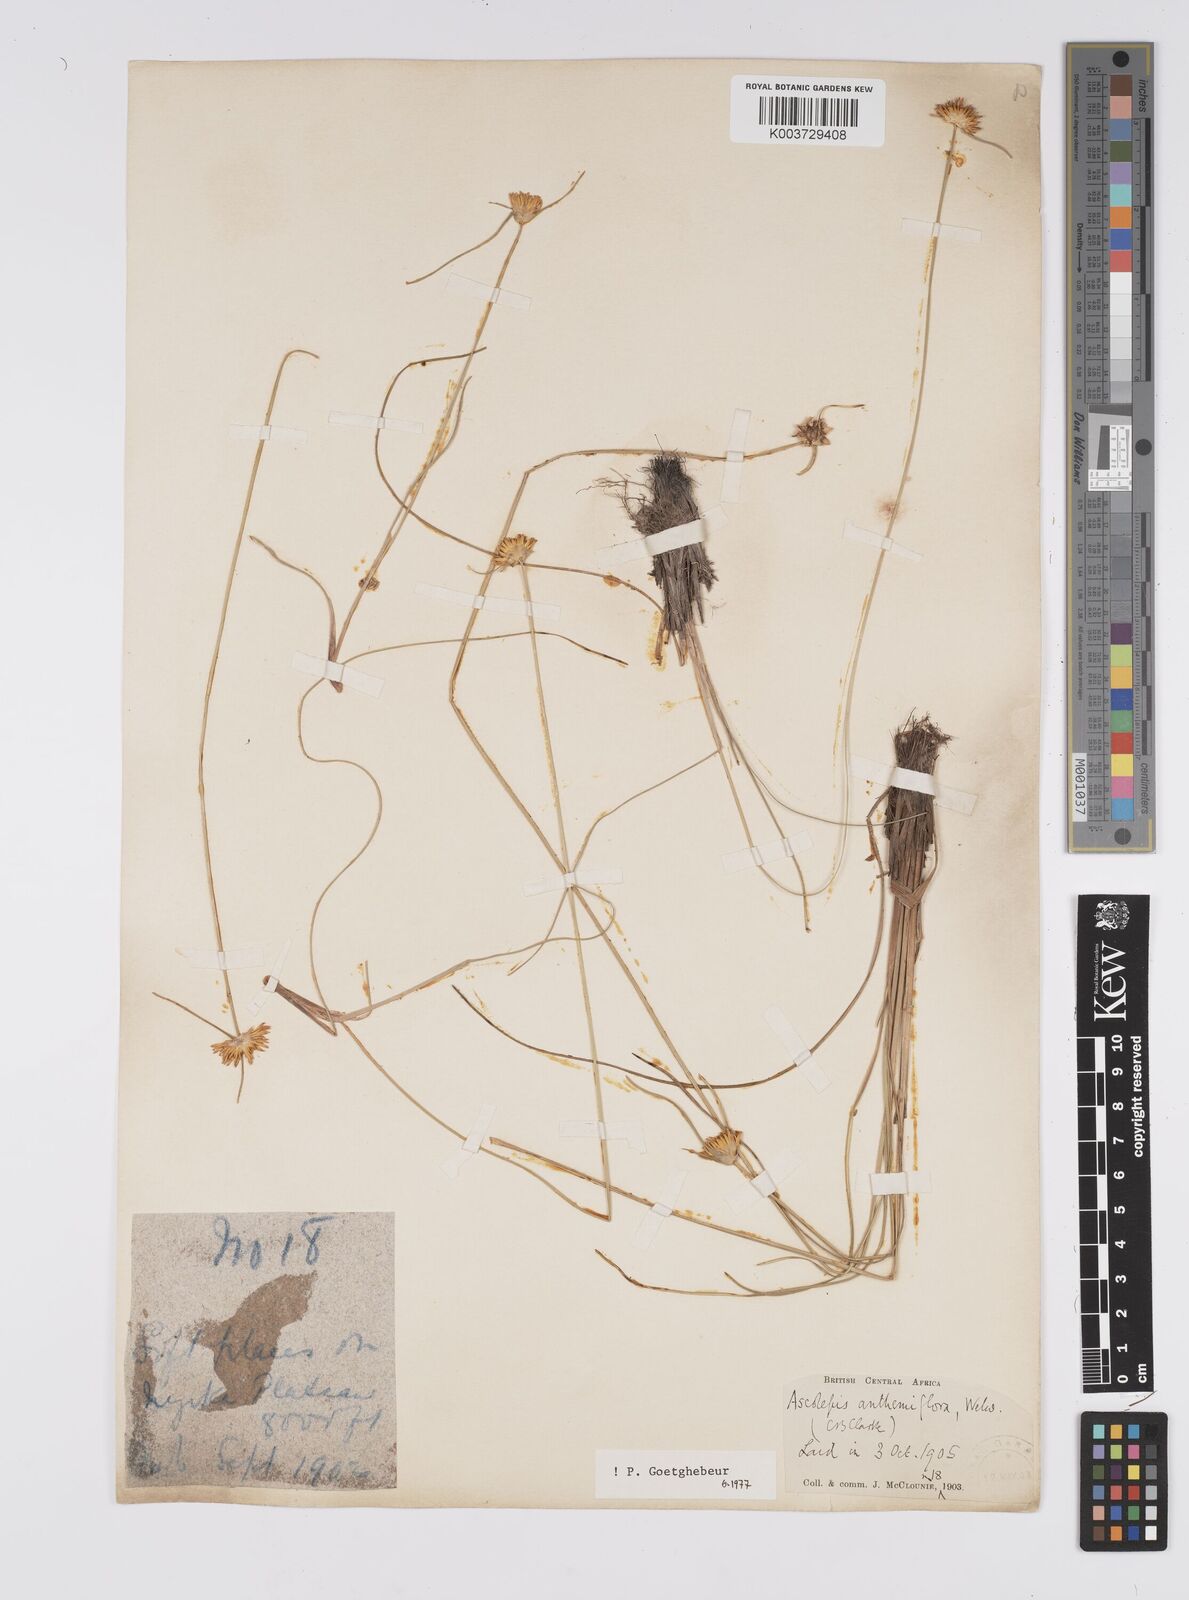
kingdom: Plantae
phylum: Tracheophyta
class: Liliopsida
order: Poales
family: Cyperaceae
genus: Cyperus
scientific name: Cyperus
